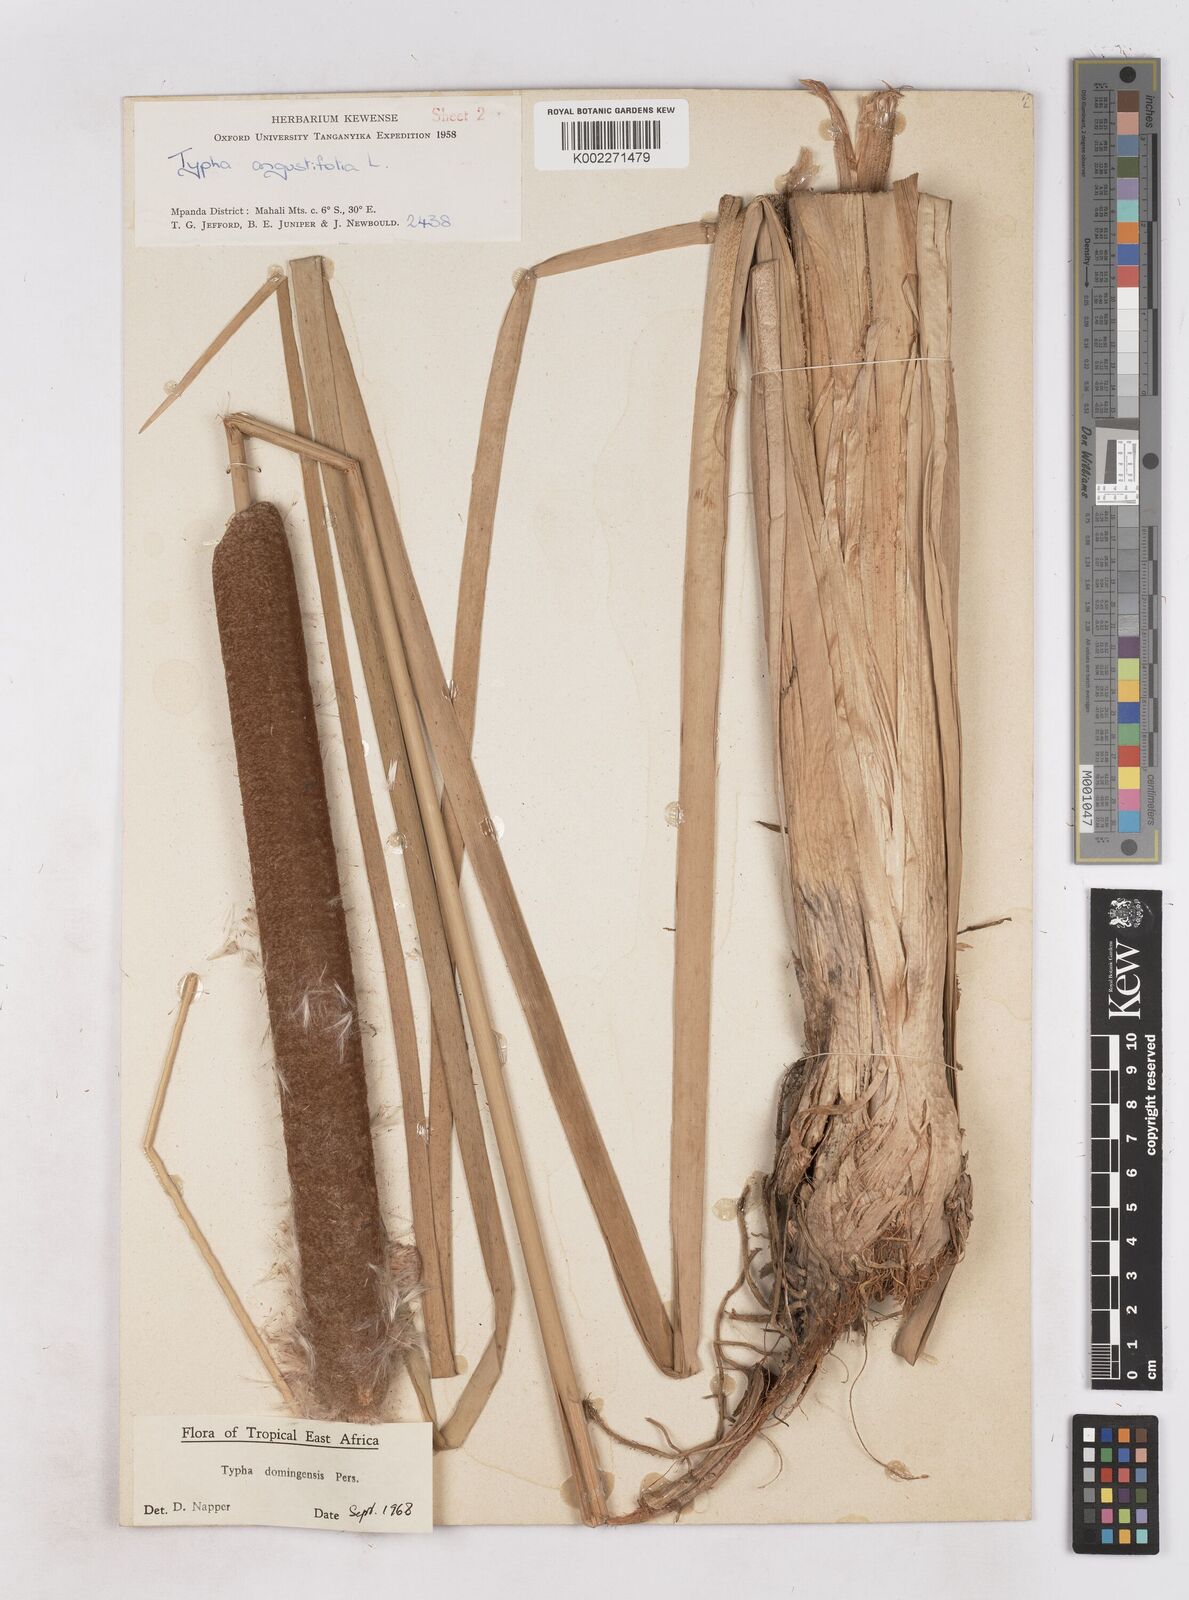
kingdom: Plantae
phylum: Tracheophyta
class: Liliopsida
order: Poales
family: Typhaceae
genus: Typha
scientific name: Typha domingensis
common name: Southern cattail
